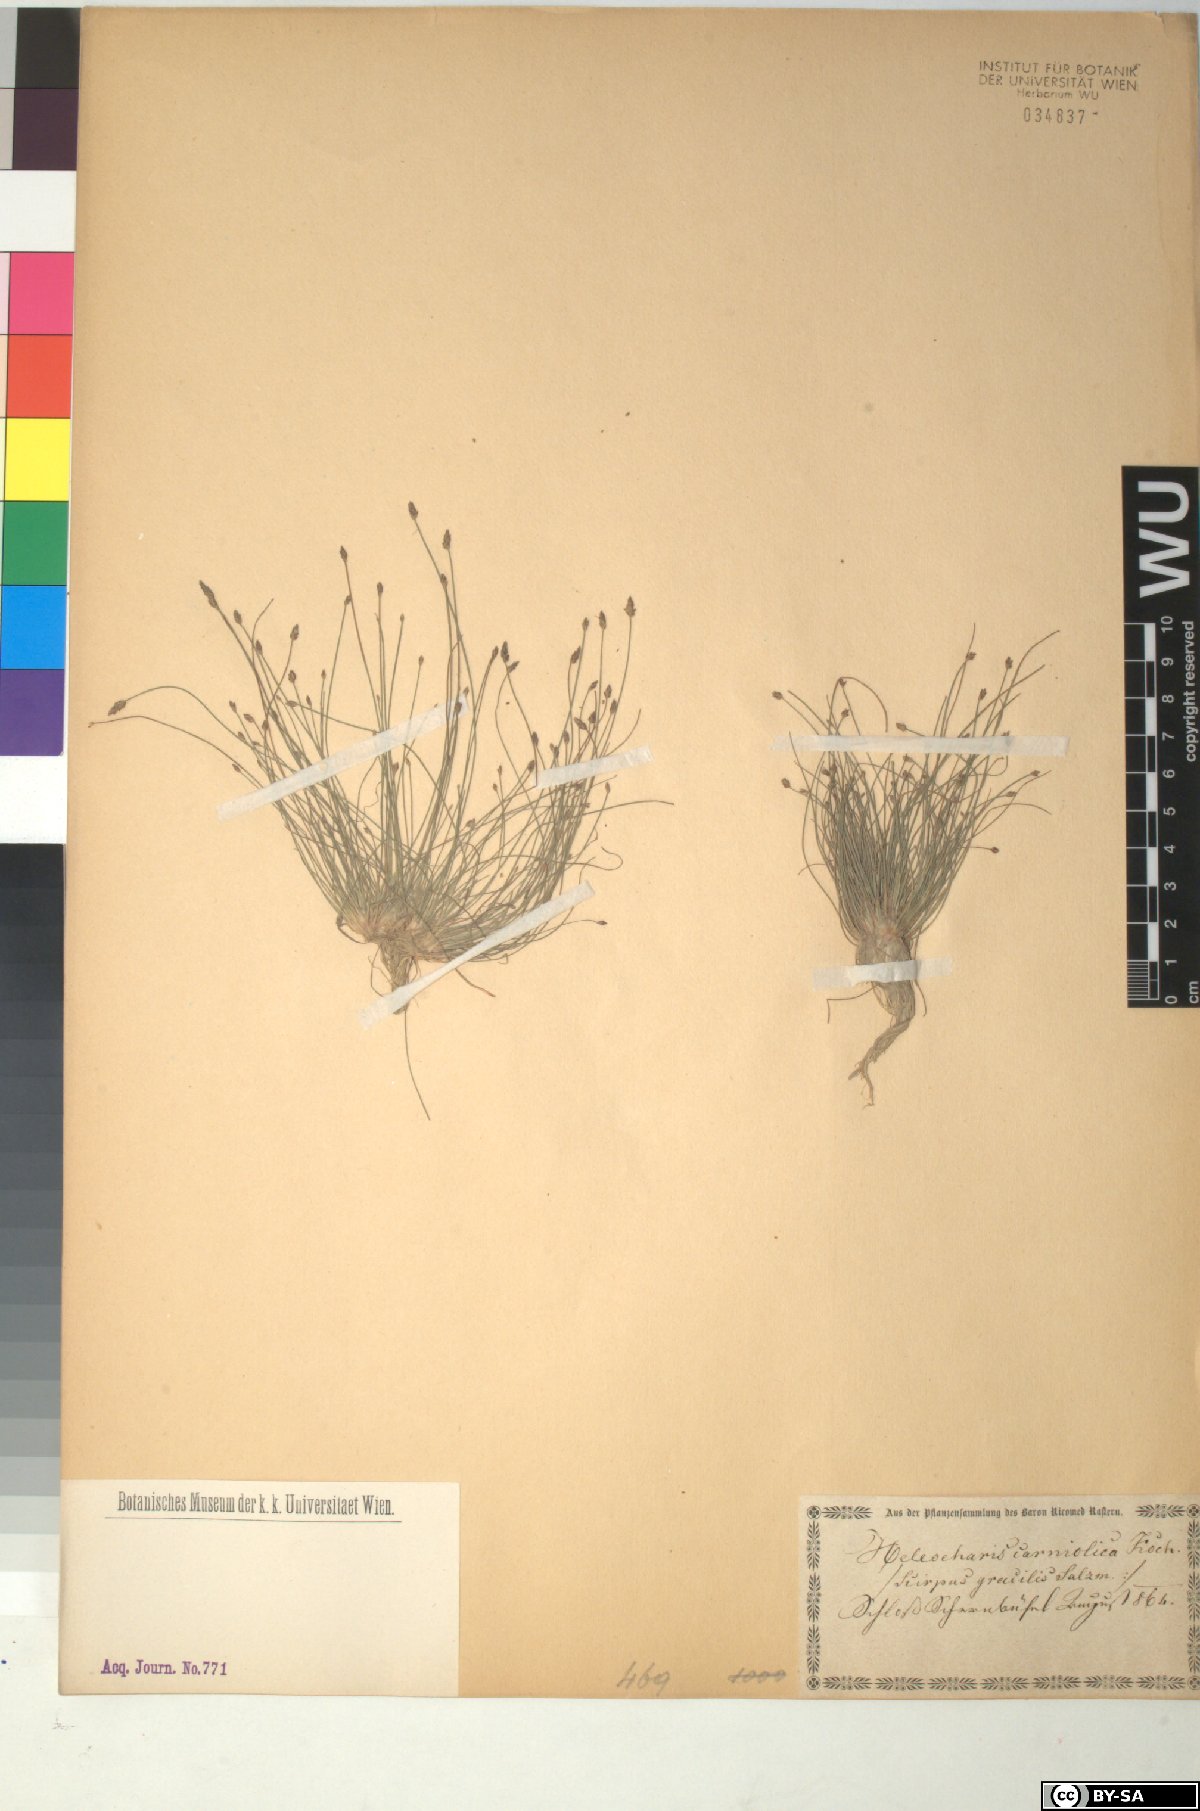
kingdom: Plantae
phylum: Tracheophyta
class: Liliopsida
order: Poales
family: Cyperaceae
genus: Eleocharis
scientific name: Eleocharis carniolica
